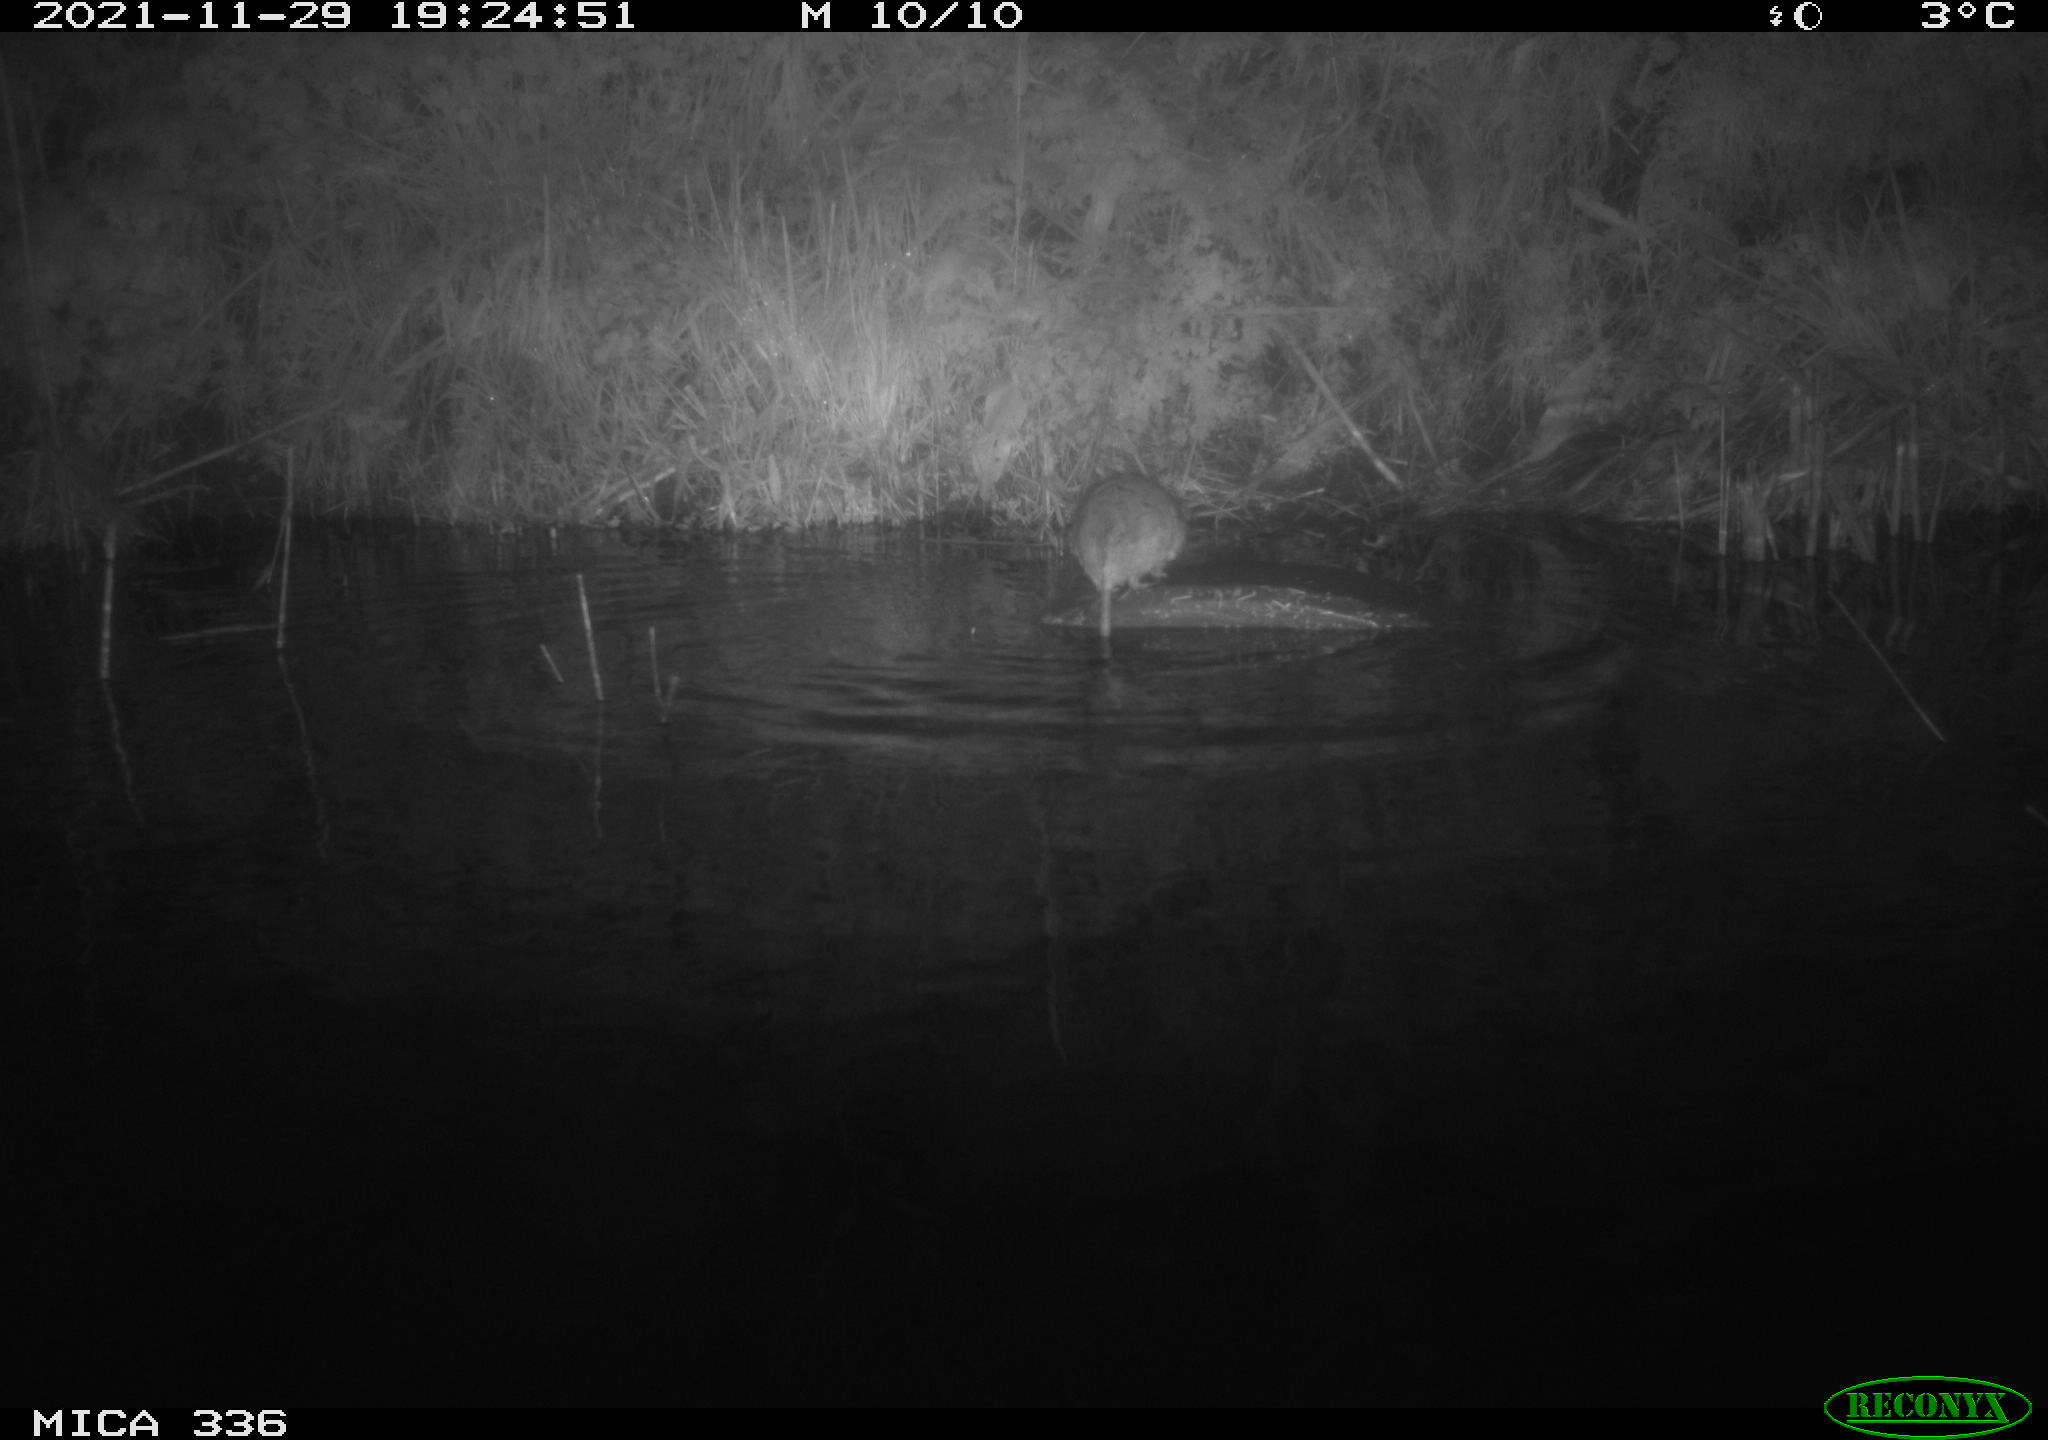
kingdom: Animalia
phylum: Chordata
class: Mammalia
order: Rodentia
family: Muridae
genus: Rattus
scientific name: Rattus norvegicus
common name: Brown rat
